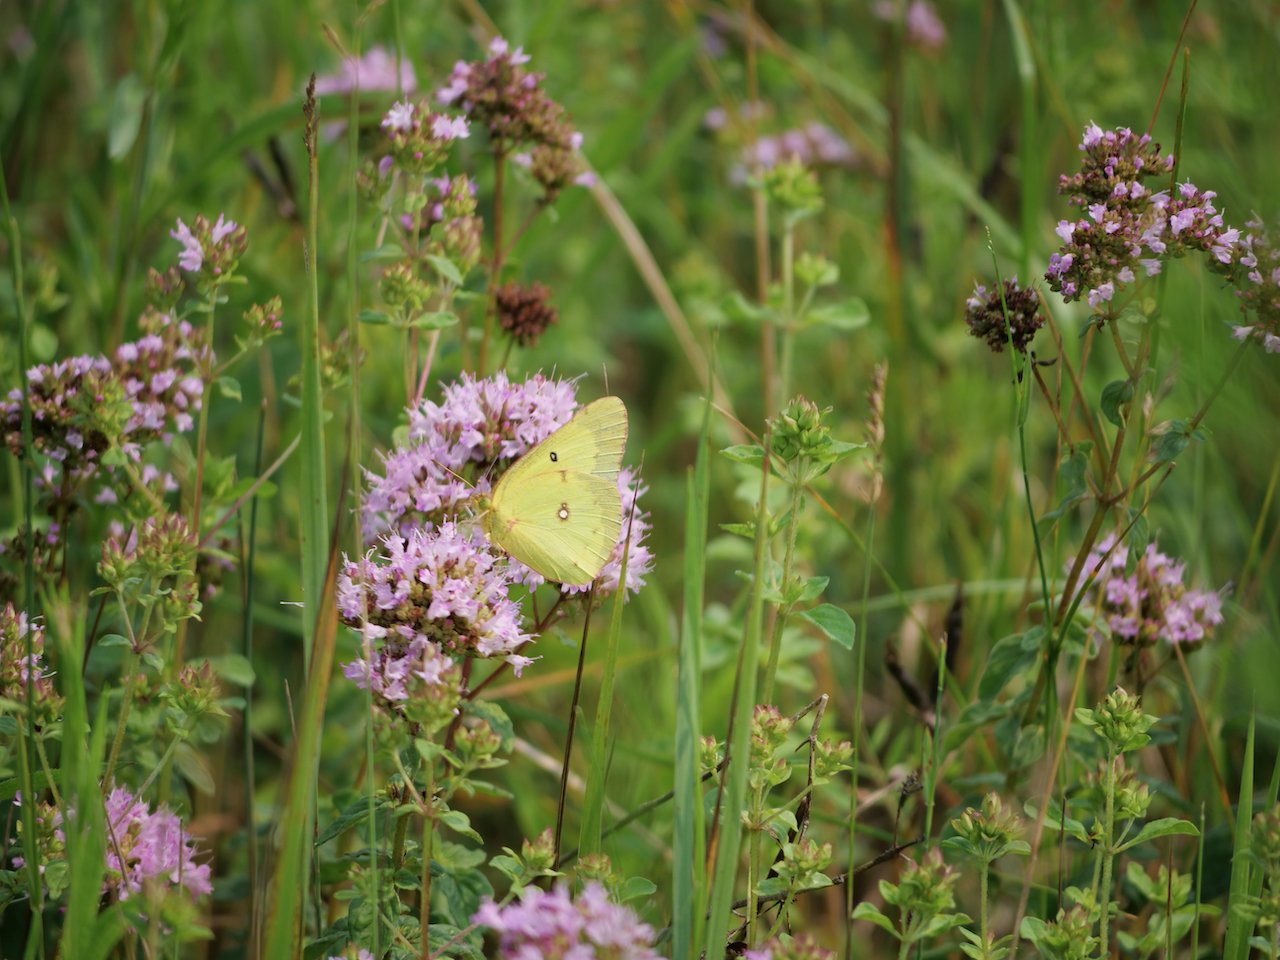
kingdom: Animalia
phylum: Arthropoda
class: Insecta
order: Lepidoptera
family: Pieridae
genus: Colias
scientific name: Colias philodice
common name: Clouded Sulphur
